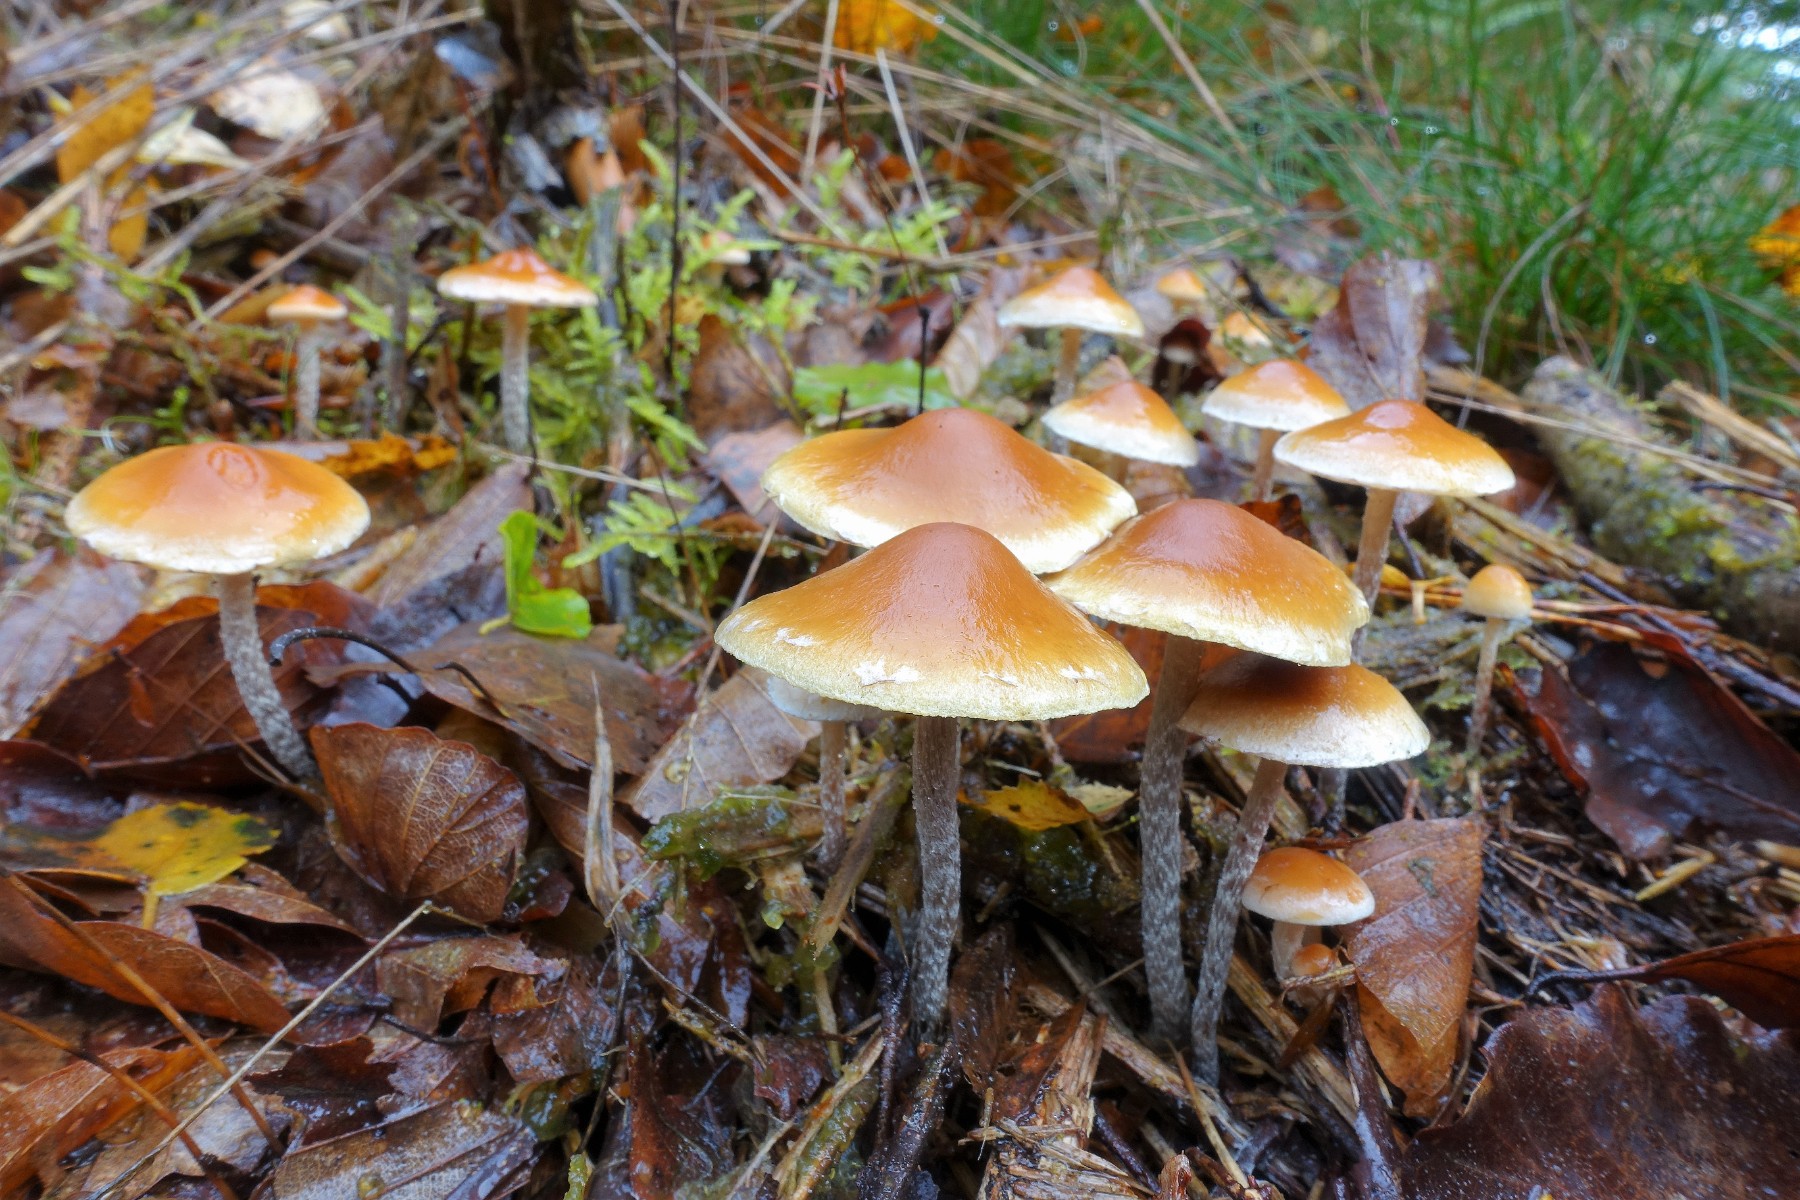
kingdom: Fungi
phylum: Basidiomycota
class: Agaricomycetes
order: Agaricales
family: Strophariaceae
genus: Hypholoma
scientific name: Hypholoma marginatum
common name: enlig svovlhat
